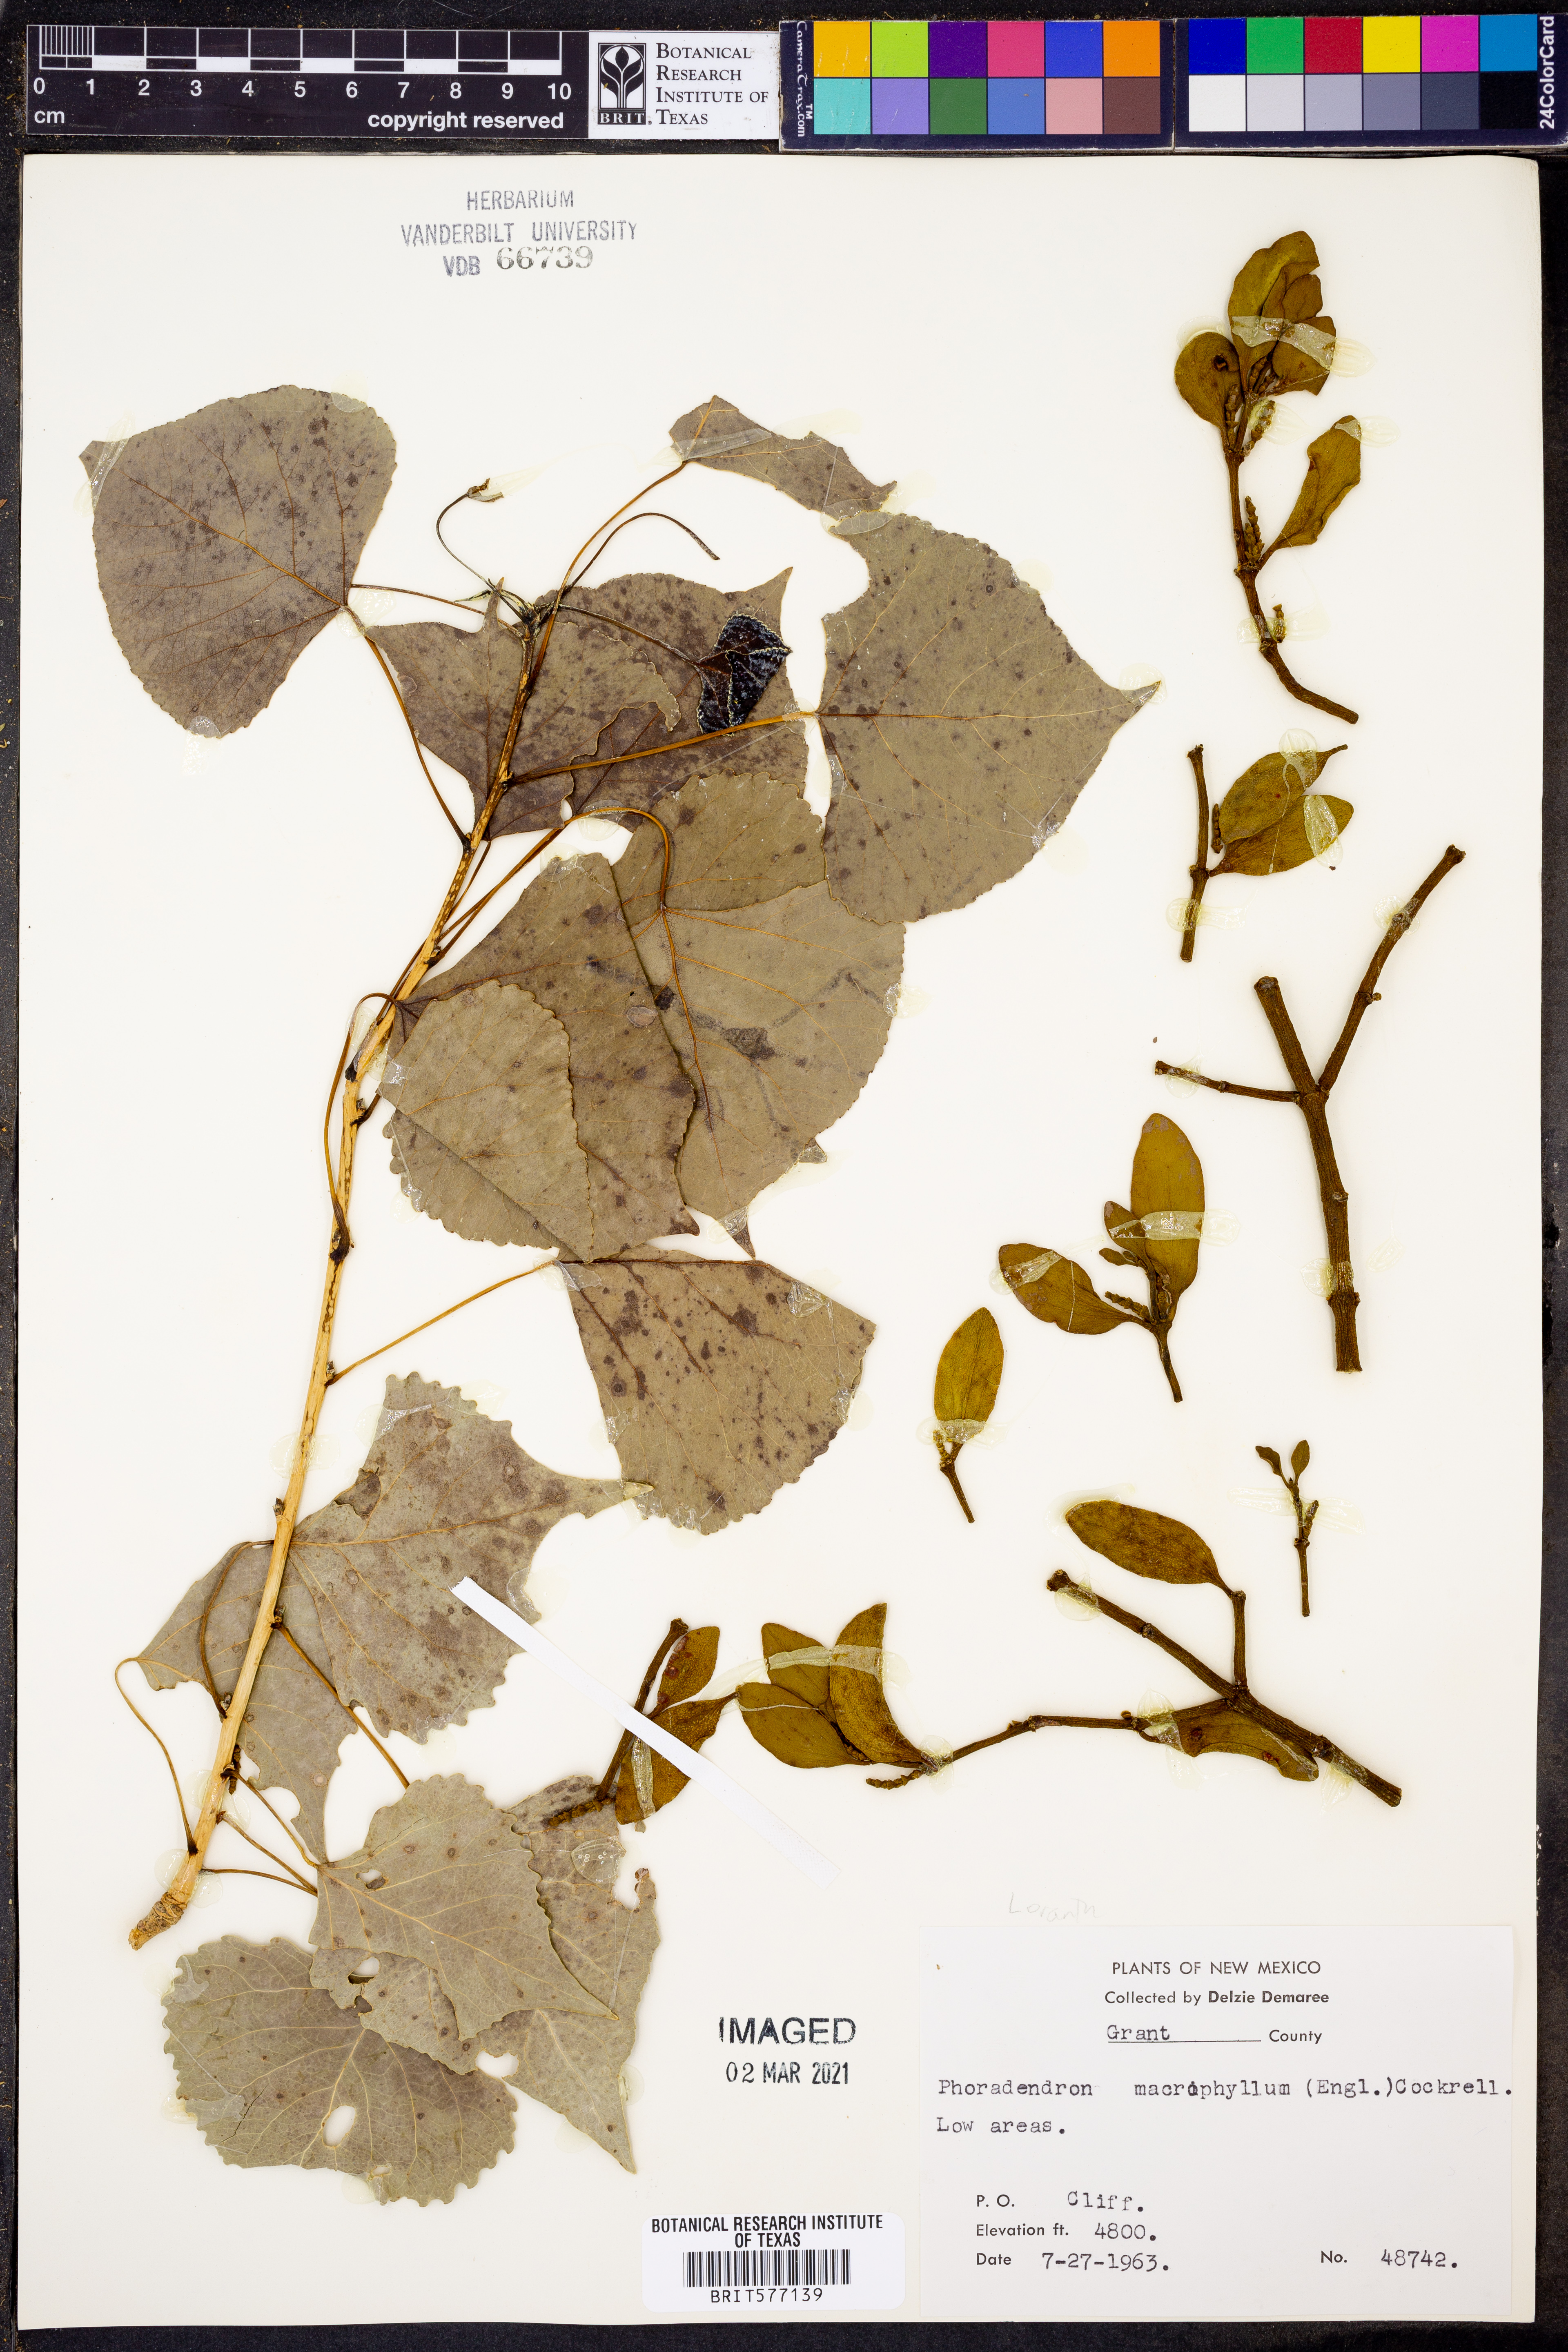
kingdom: Plantae
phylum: Tracheophyta
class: Magnoliopsida
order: Santalales
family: Viscaceae
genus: Phoradendron
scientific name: Phoradendron leucarpum
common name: Pacific mistletoe
